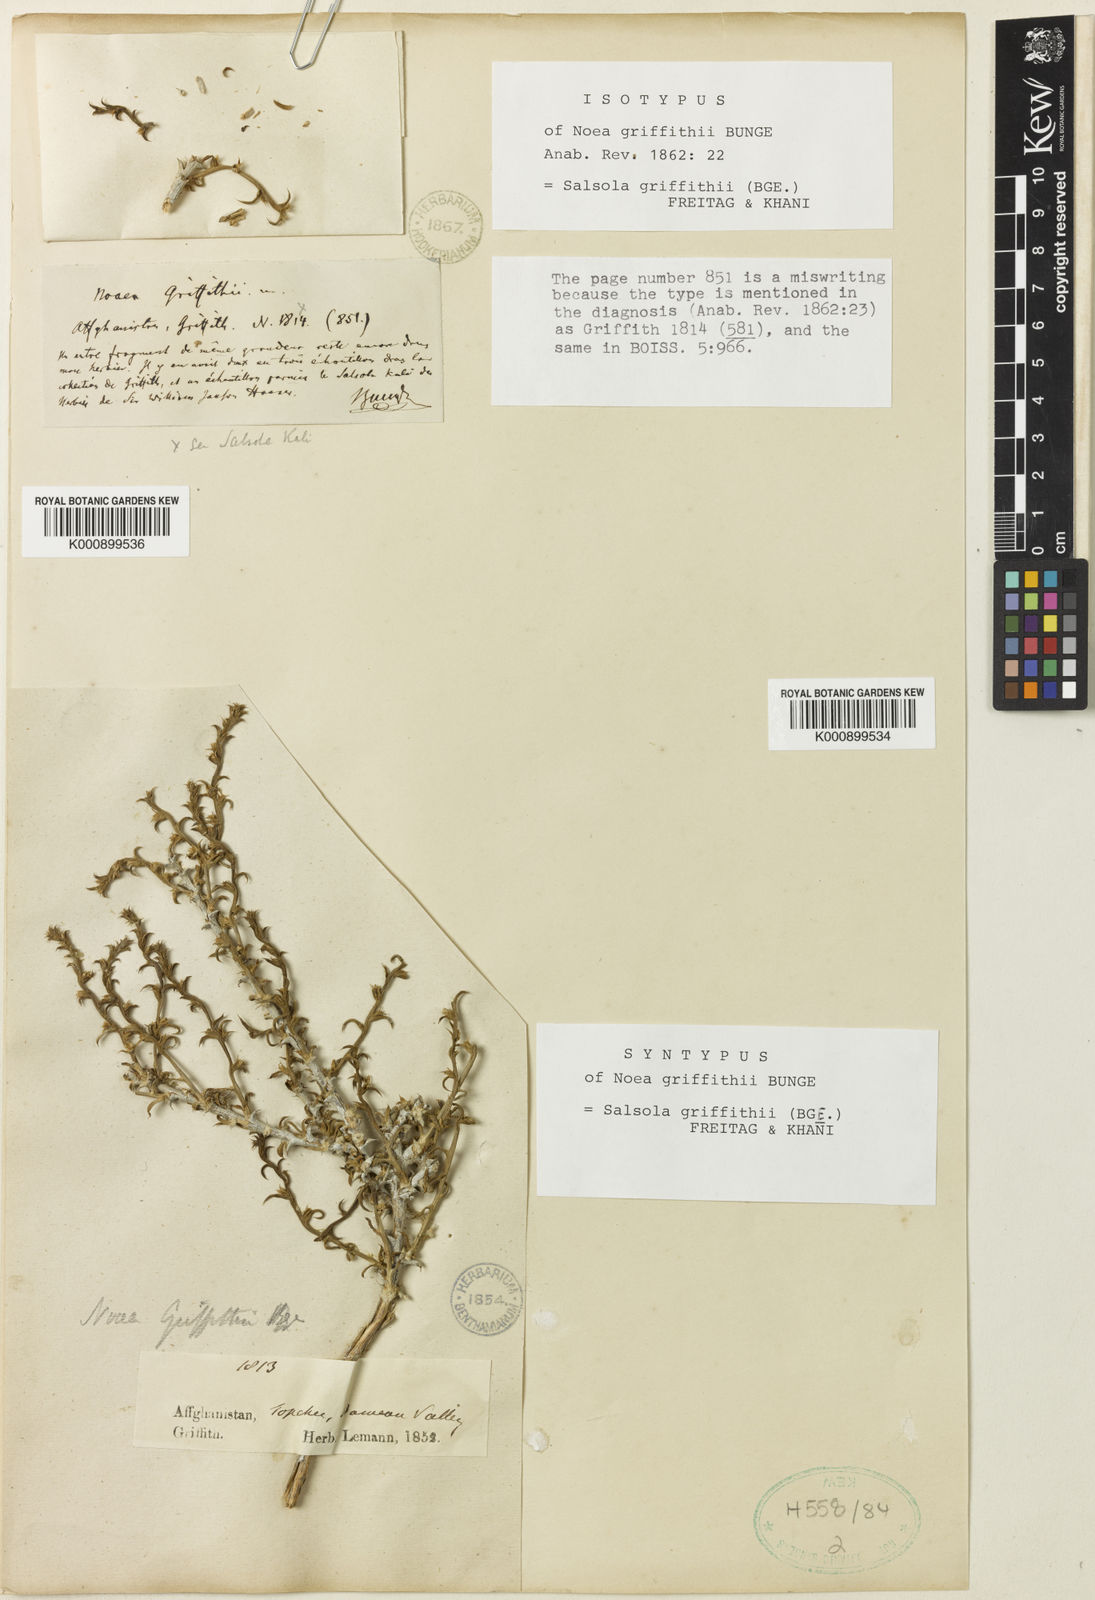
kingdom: Plantae
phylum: Tracheophyta
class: Magnoliopsida
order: Caryophyllales
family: Amaranthaceae
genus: Salsola
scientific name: Salsola griffithii
